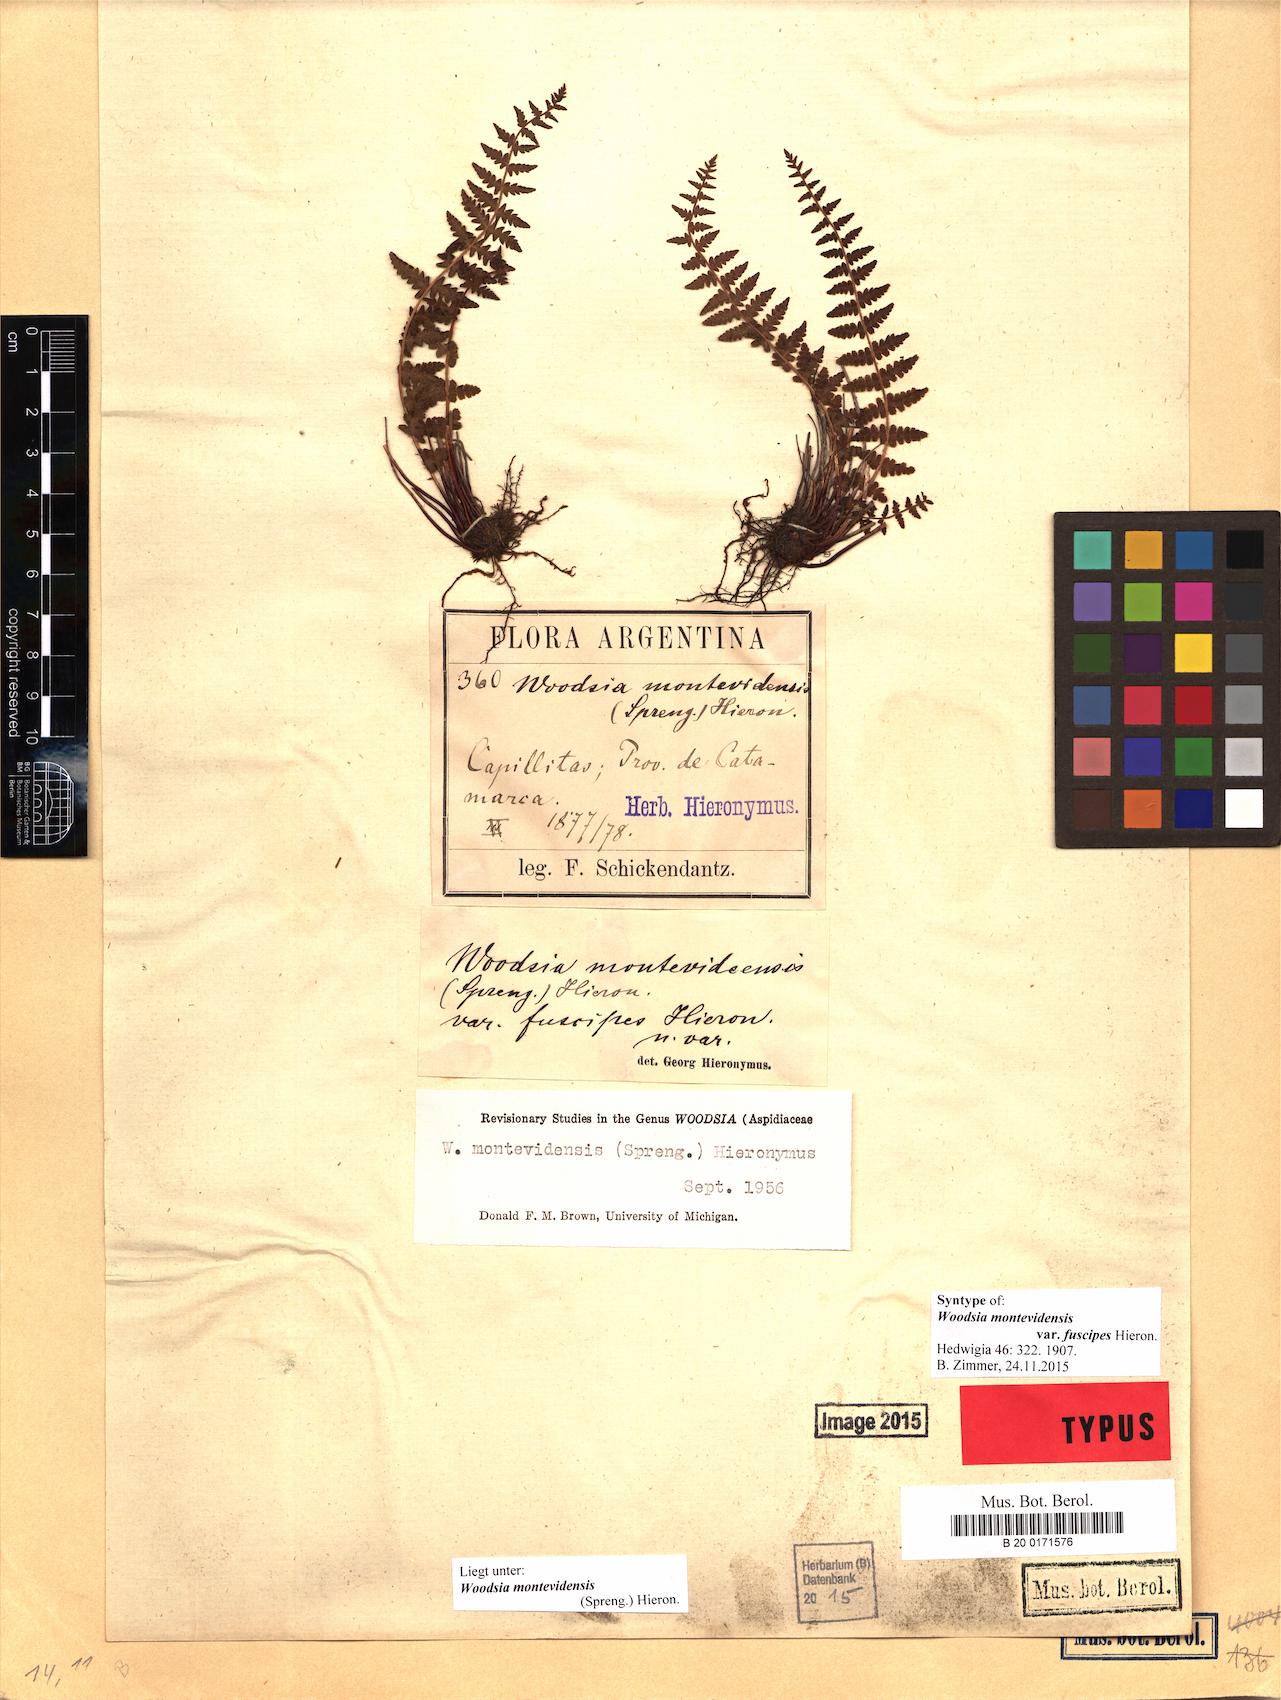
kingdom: Plantae
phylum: Tracheophyta
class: Polypodiopsida
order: Polypodiales
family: Woodsiaceae
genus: Physematium
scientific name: Physematium montevidense
